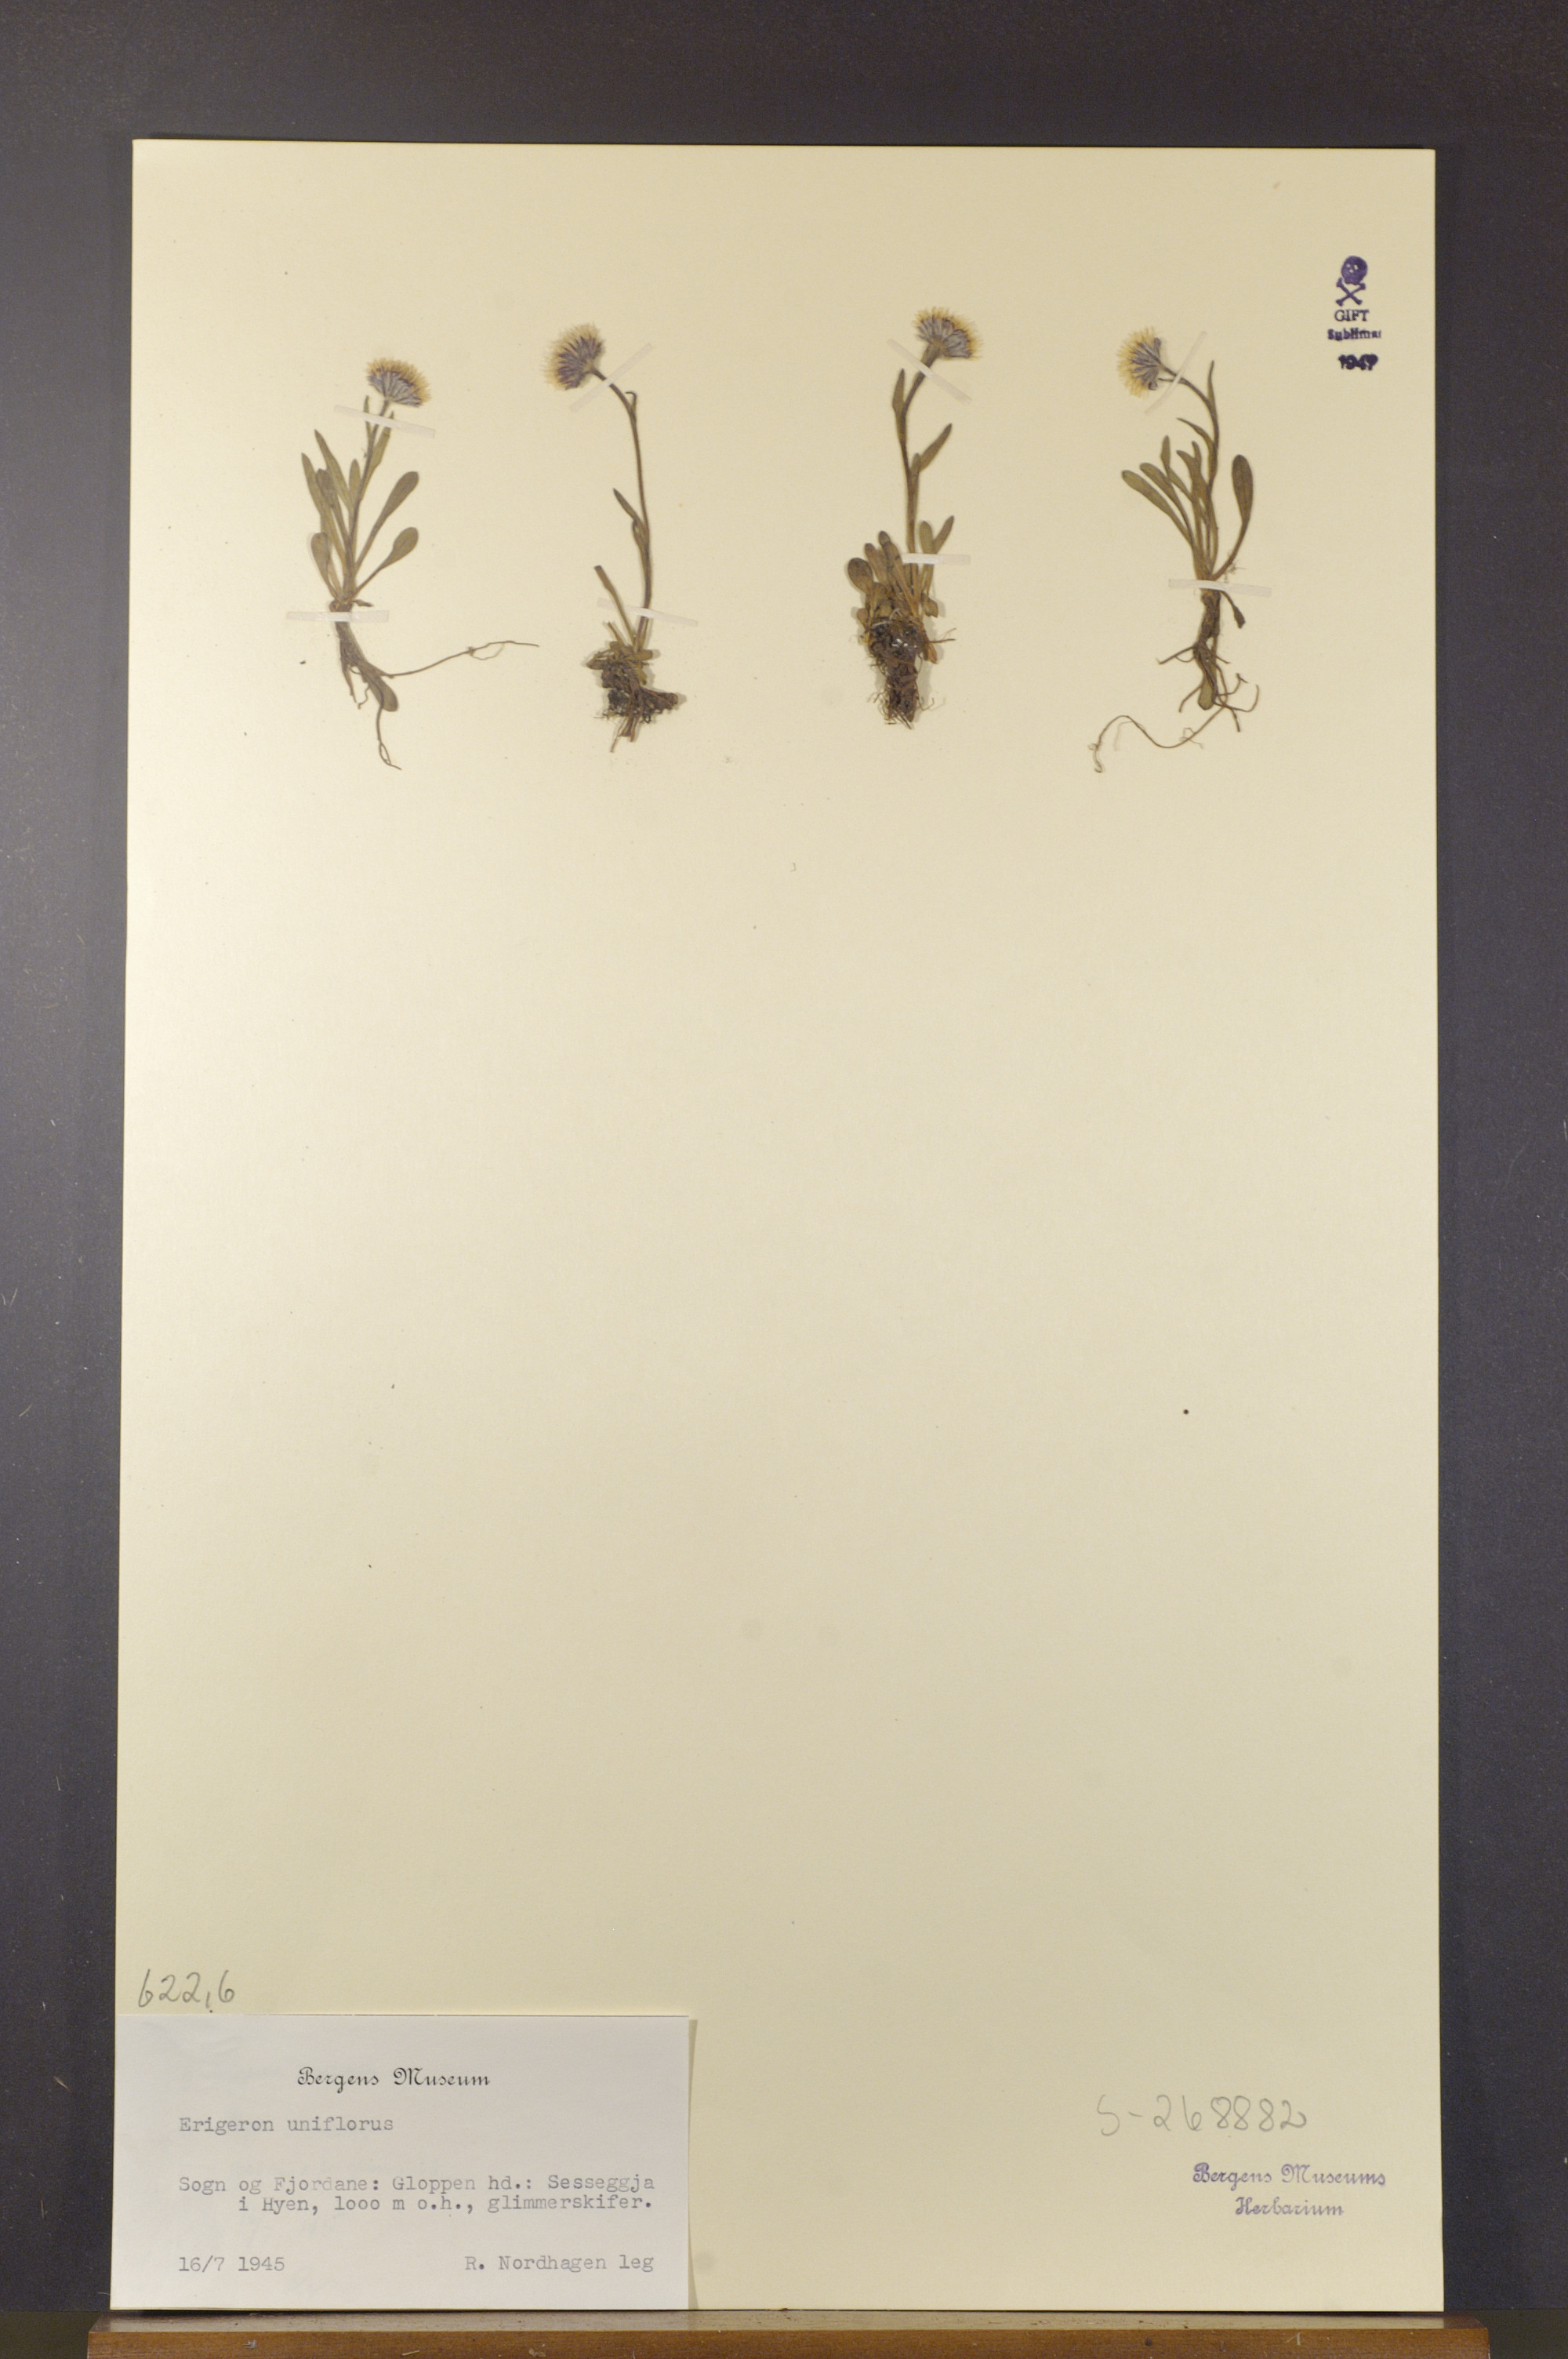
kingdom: Plantae
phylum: Tracheophyta
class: Magnoliopsida
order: Asterales
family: Asteraceae
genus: Erigeron
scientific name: Erigeron uniflorus
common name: Northern daisy
